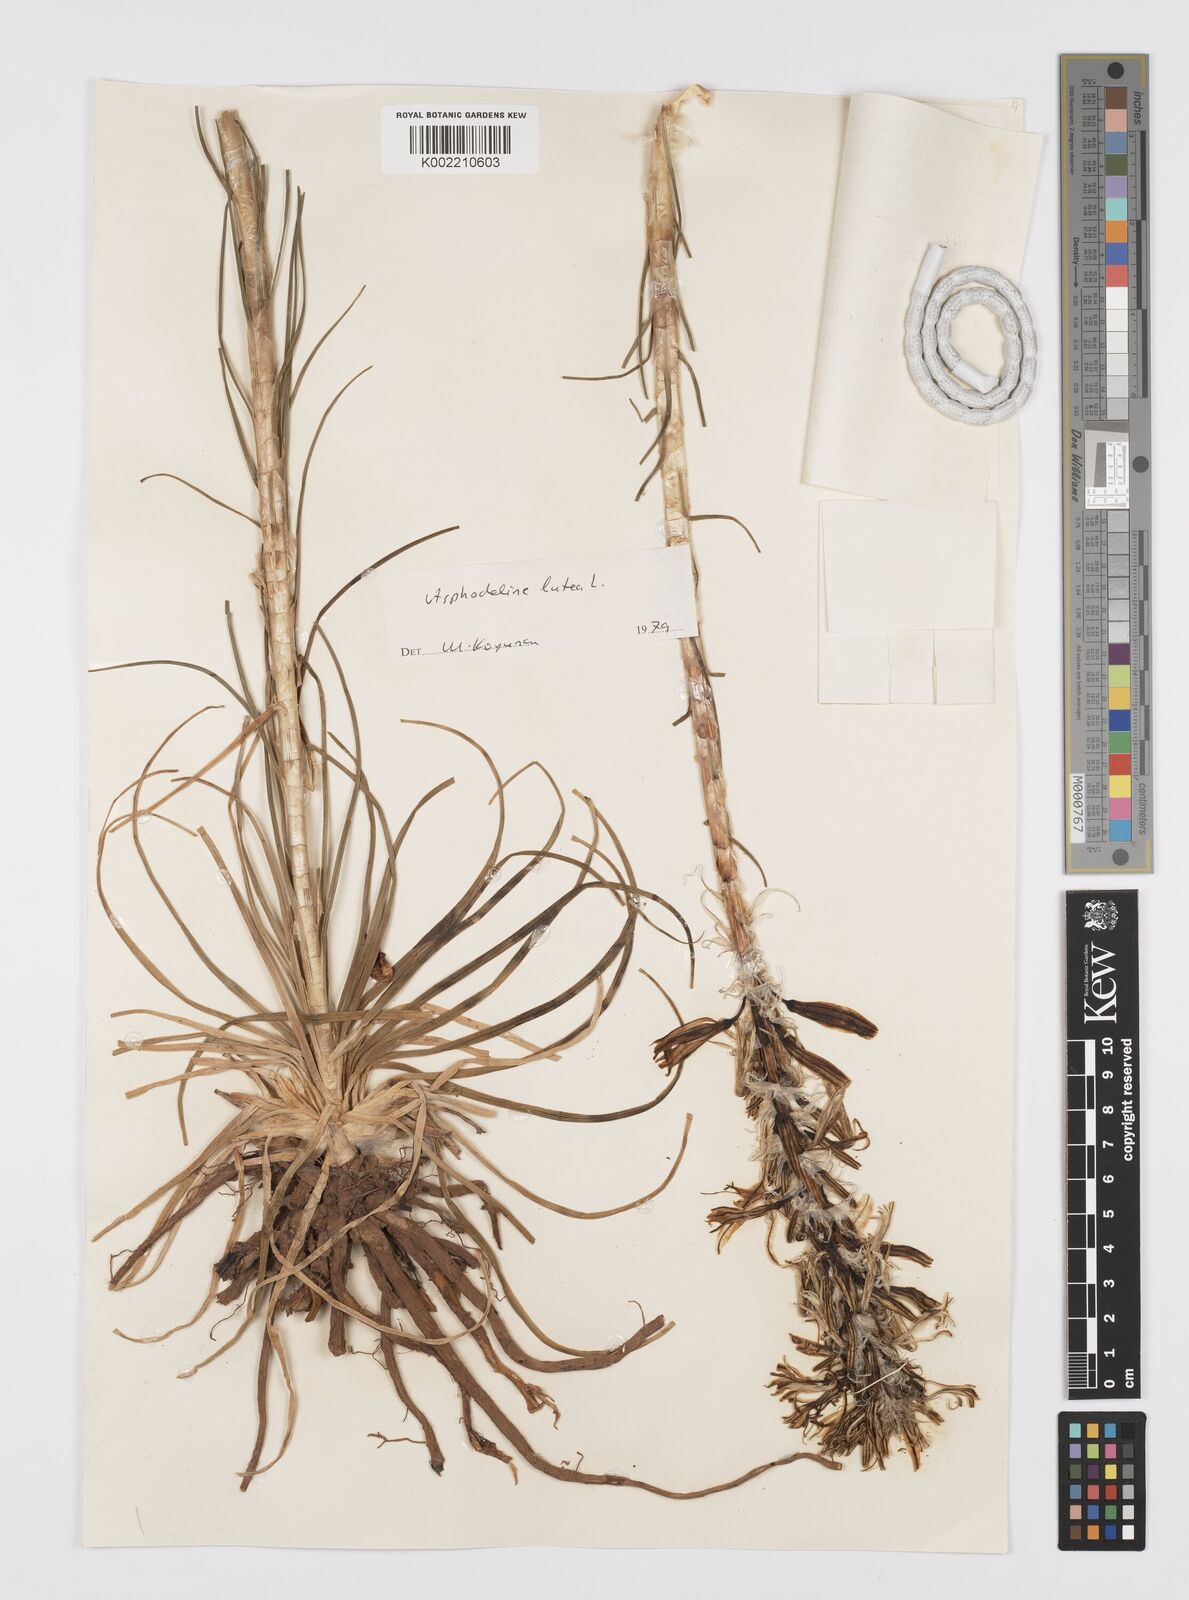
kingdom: Plantae
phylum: Tracheophyta
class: Liliopsida
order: Asparagales
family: Asphodelaceae
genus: Asphodeline
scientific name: Asphodeline lutea
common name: Yellow asphodel
